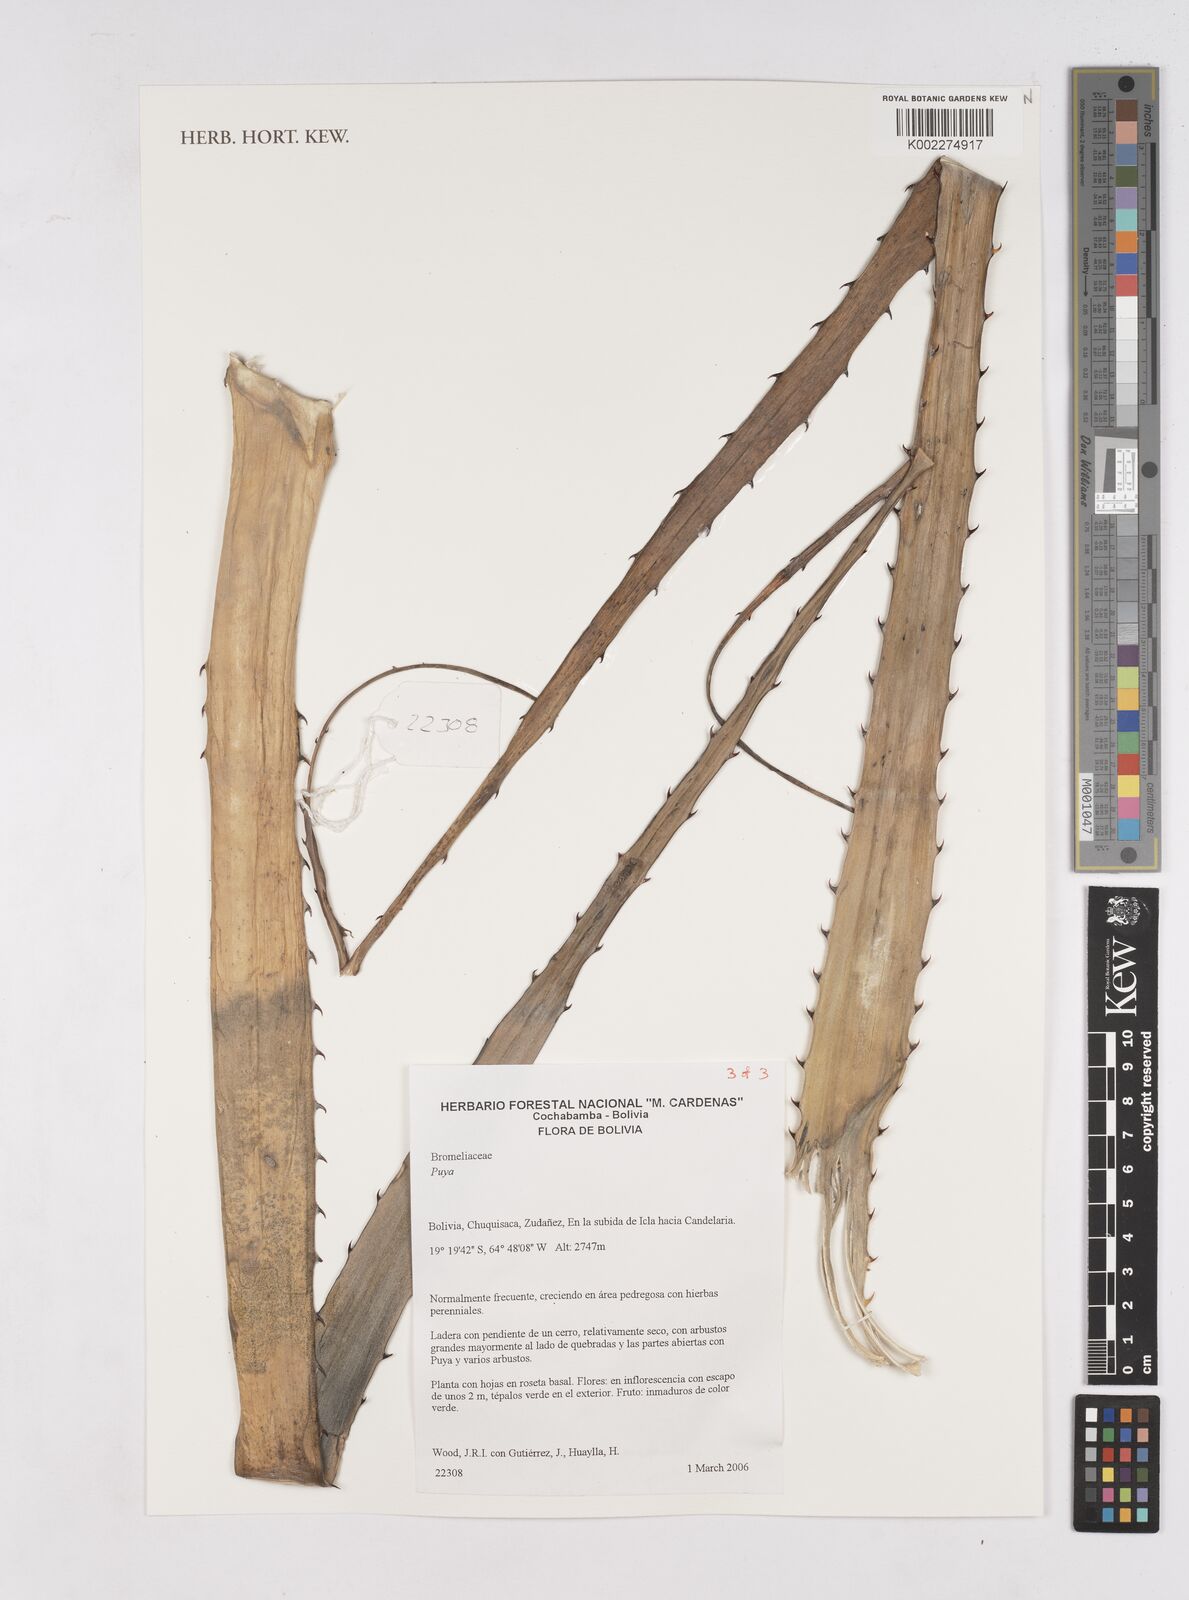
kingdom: Plantae
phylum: Tracheophyta
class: Liliopsida
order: Poales
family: Bromeliaceae
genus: Puya
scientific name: Puya
